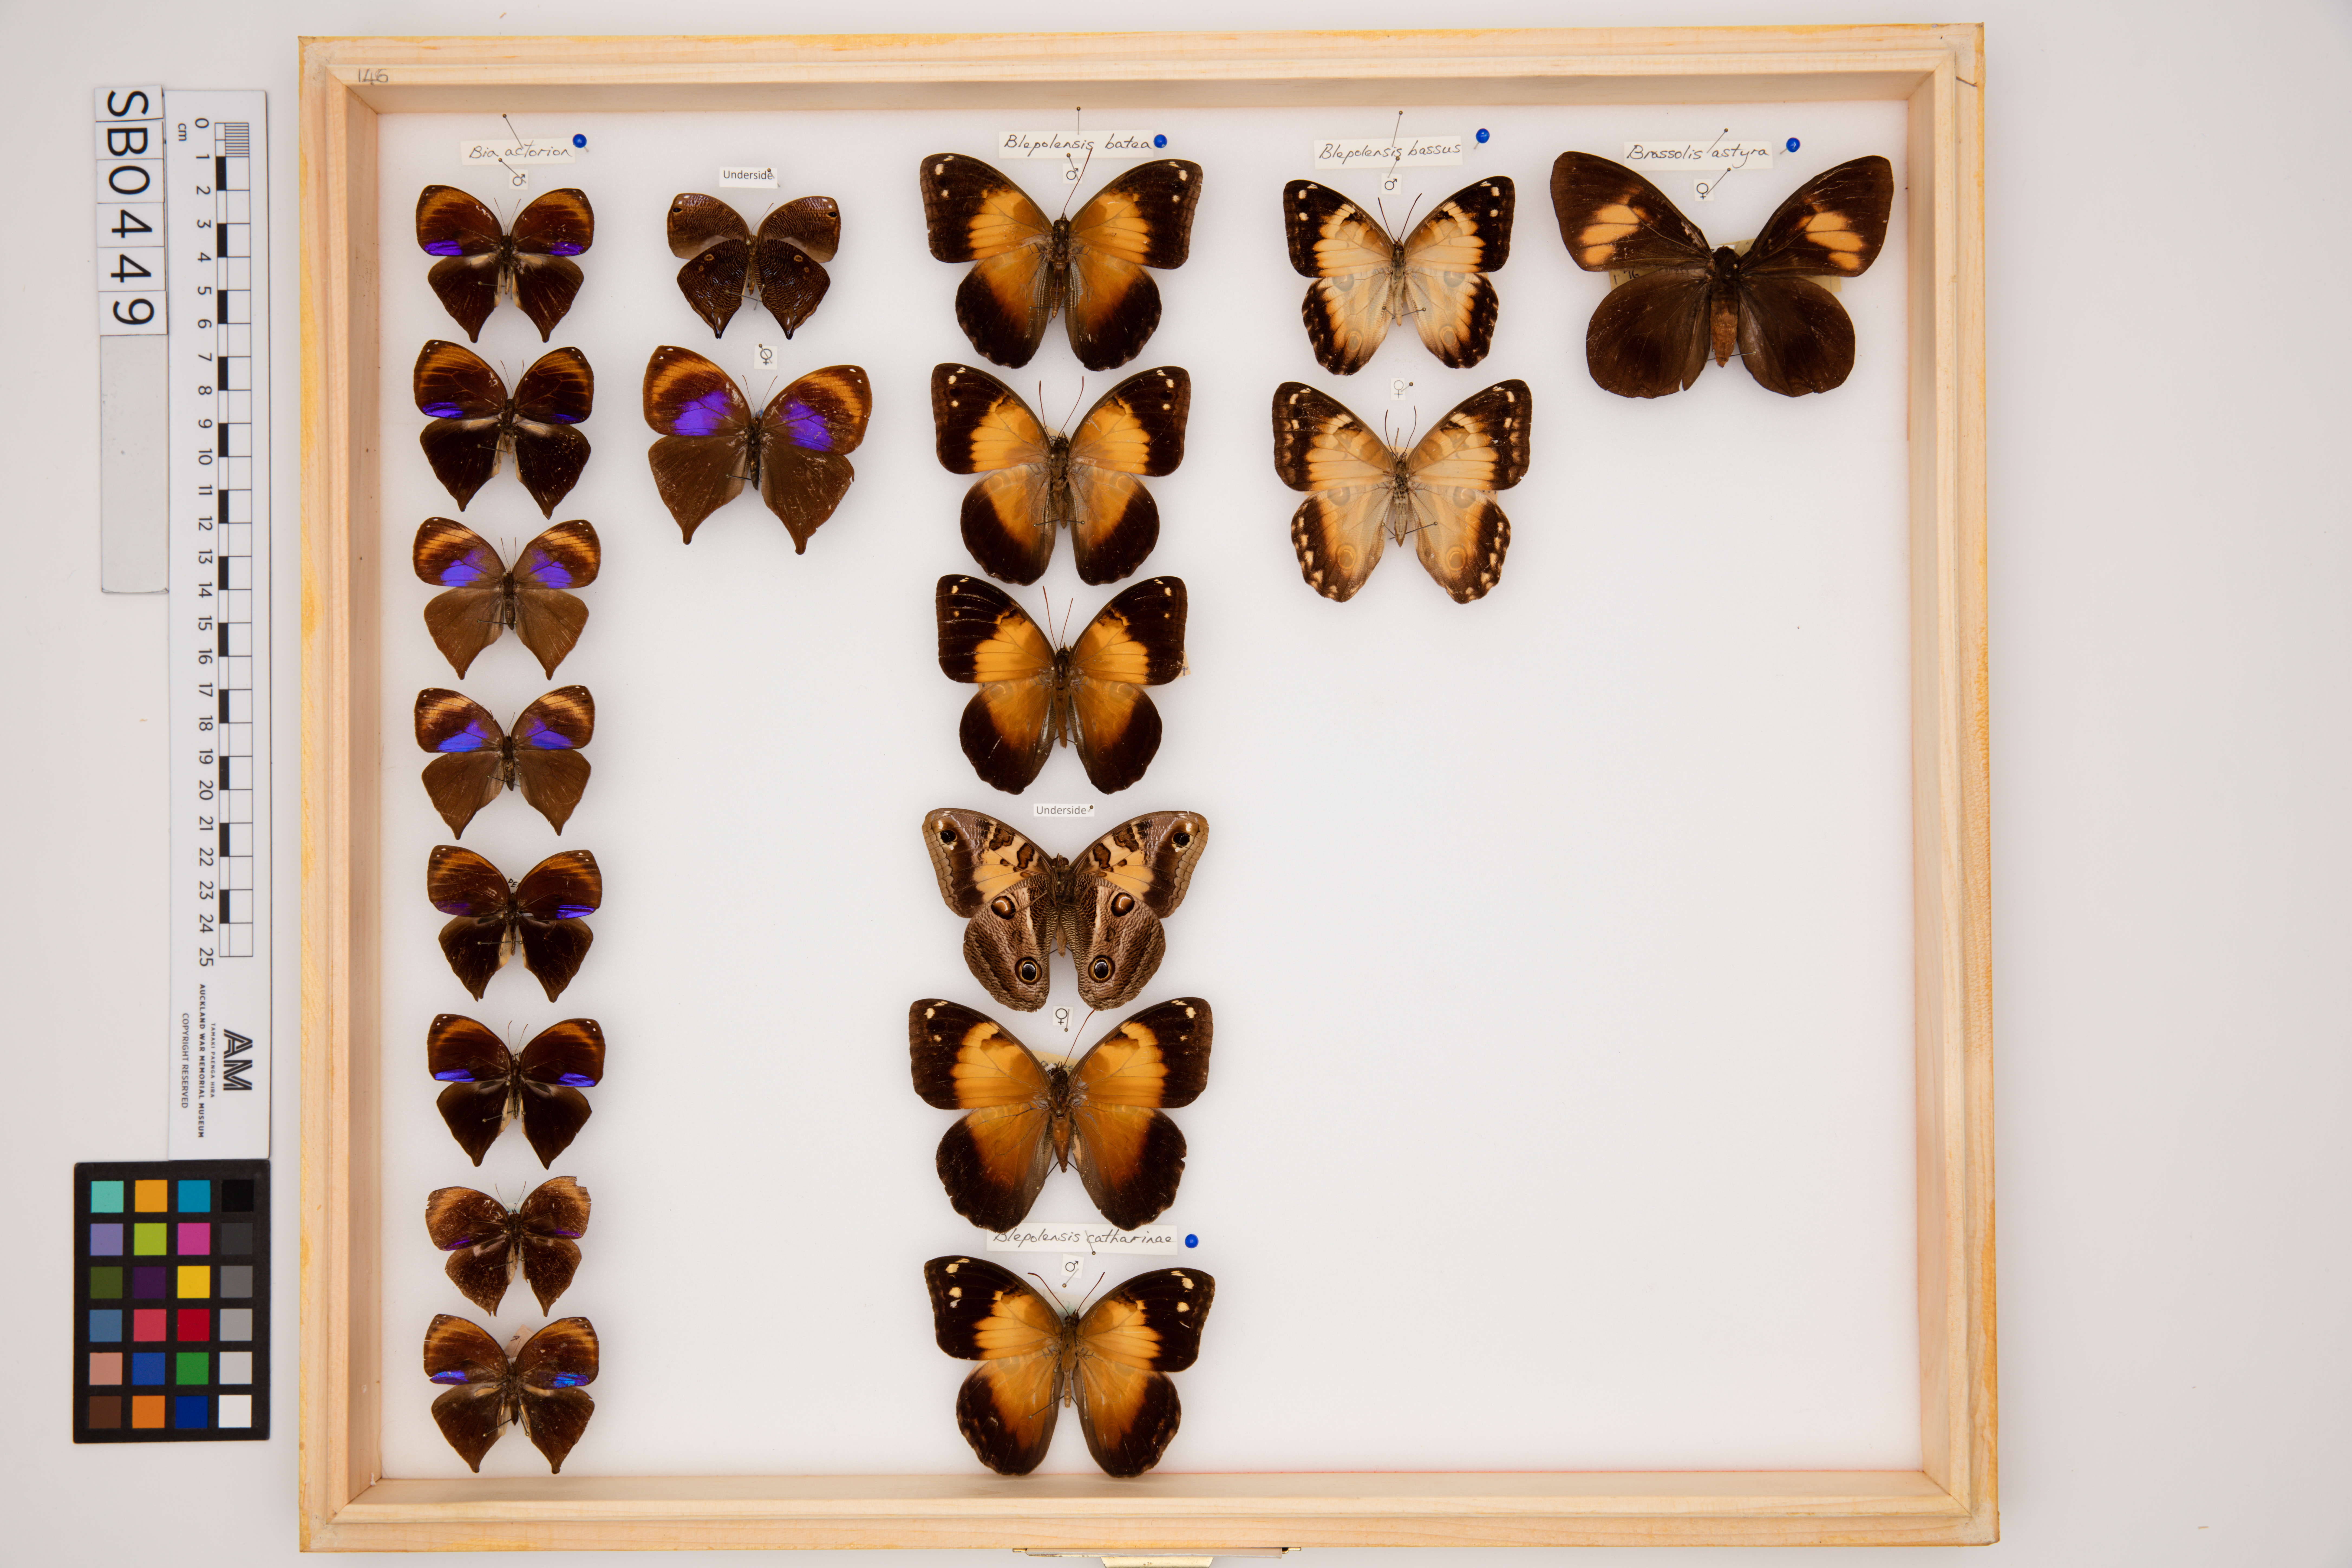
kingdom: Animalia
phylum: Arthropoda
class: Insecta
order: Lepidoptera
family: Nymphalidae
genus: Opsiphanes
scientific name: Opsiphanes batea
